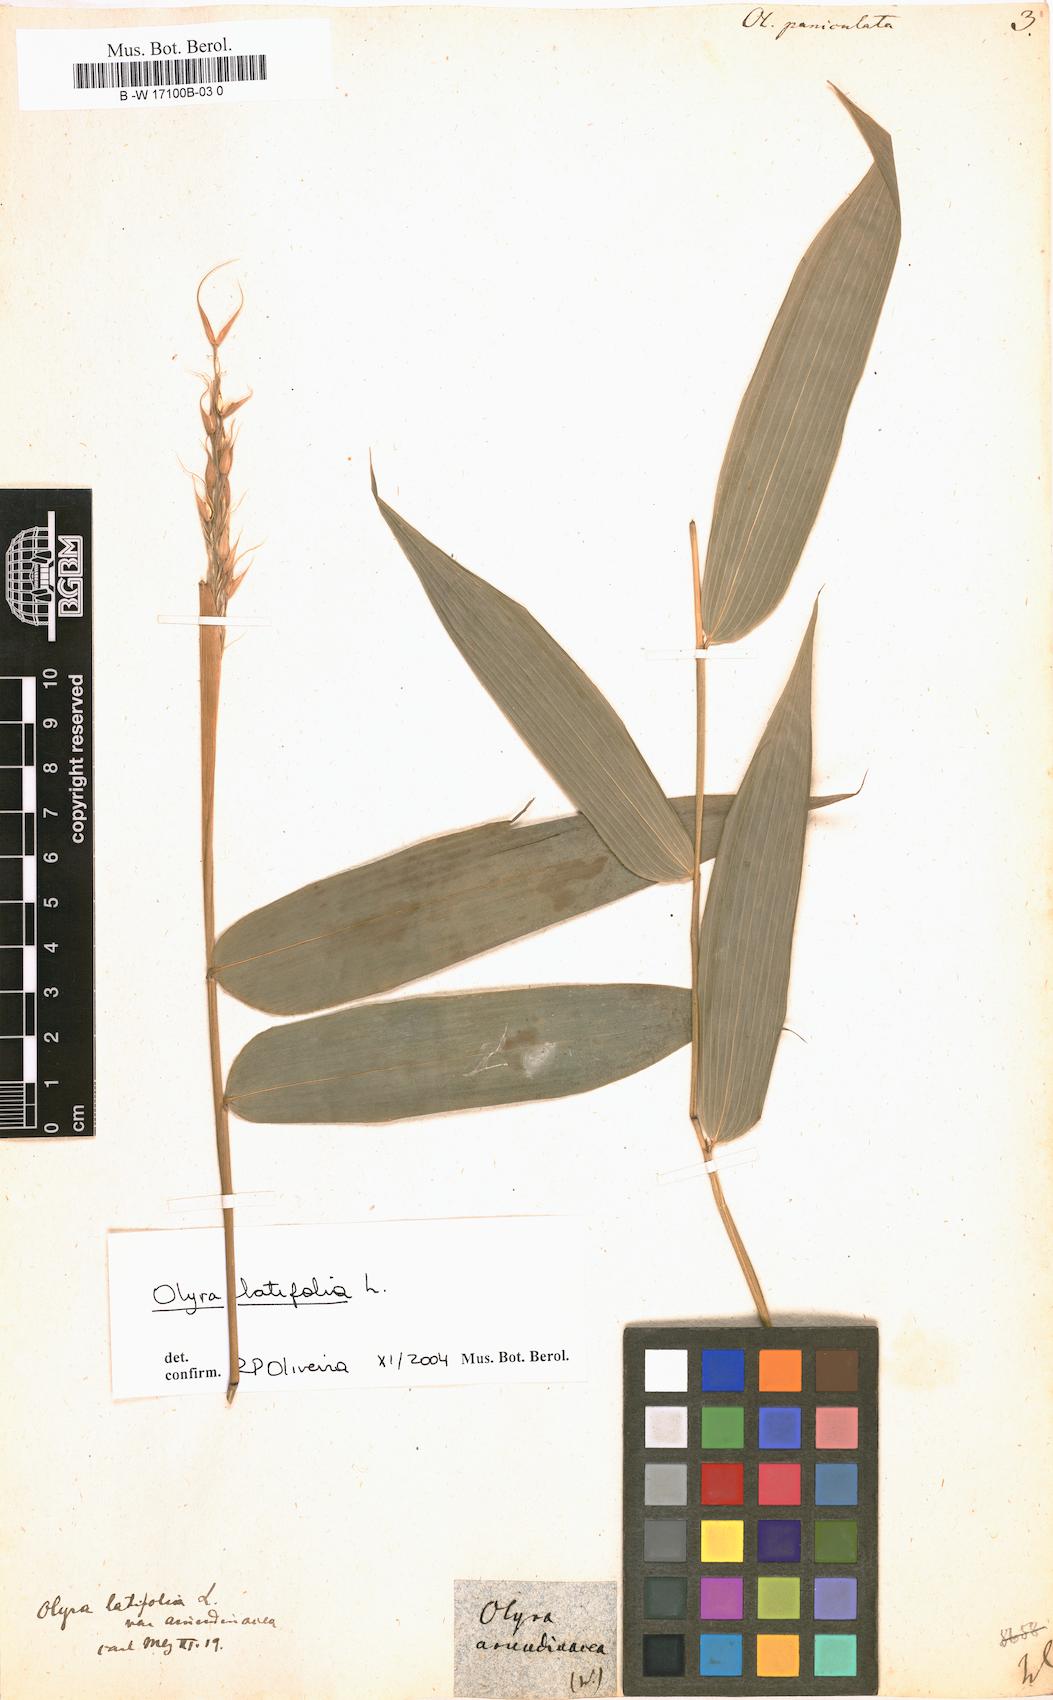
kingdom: Plantae
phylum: Tracheophyta
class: Liliopsida
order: Poales
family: Poaceae
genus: Olyra
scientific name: Olyra latifolia
